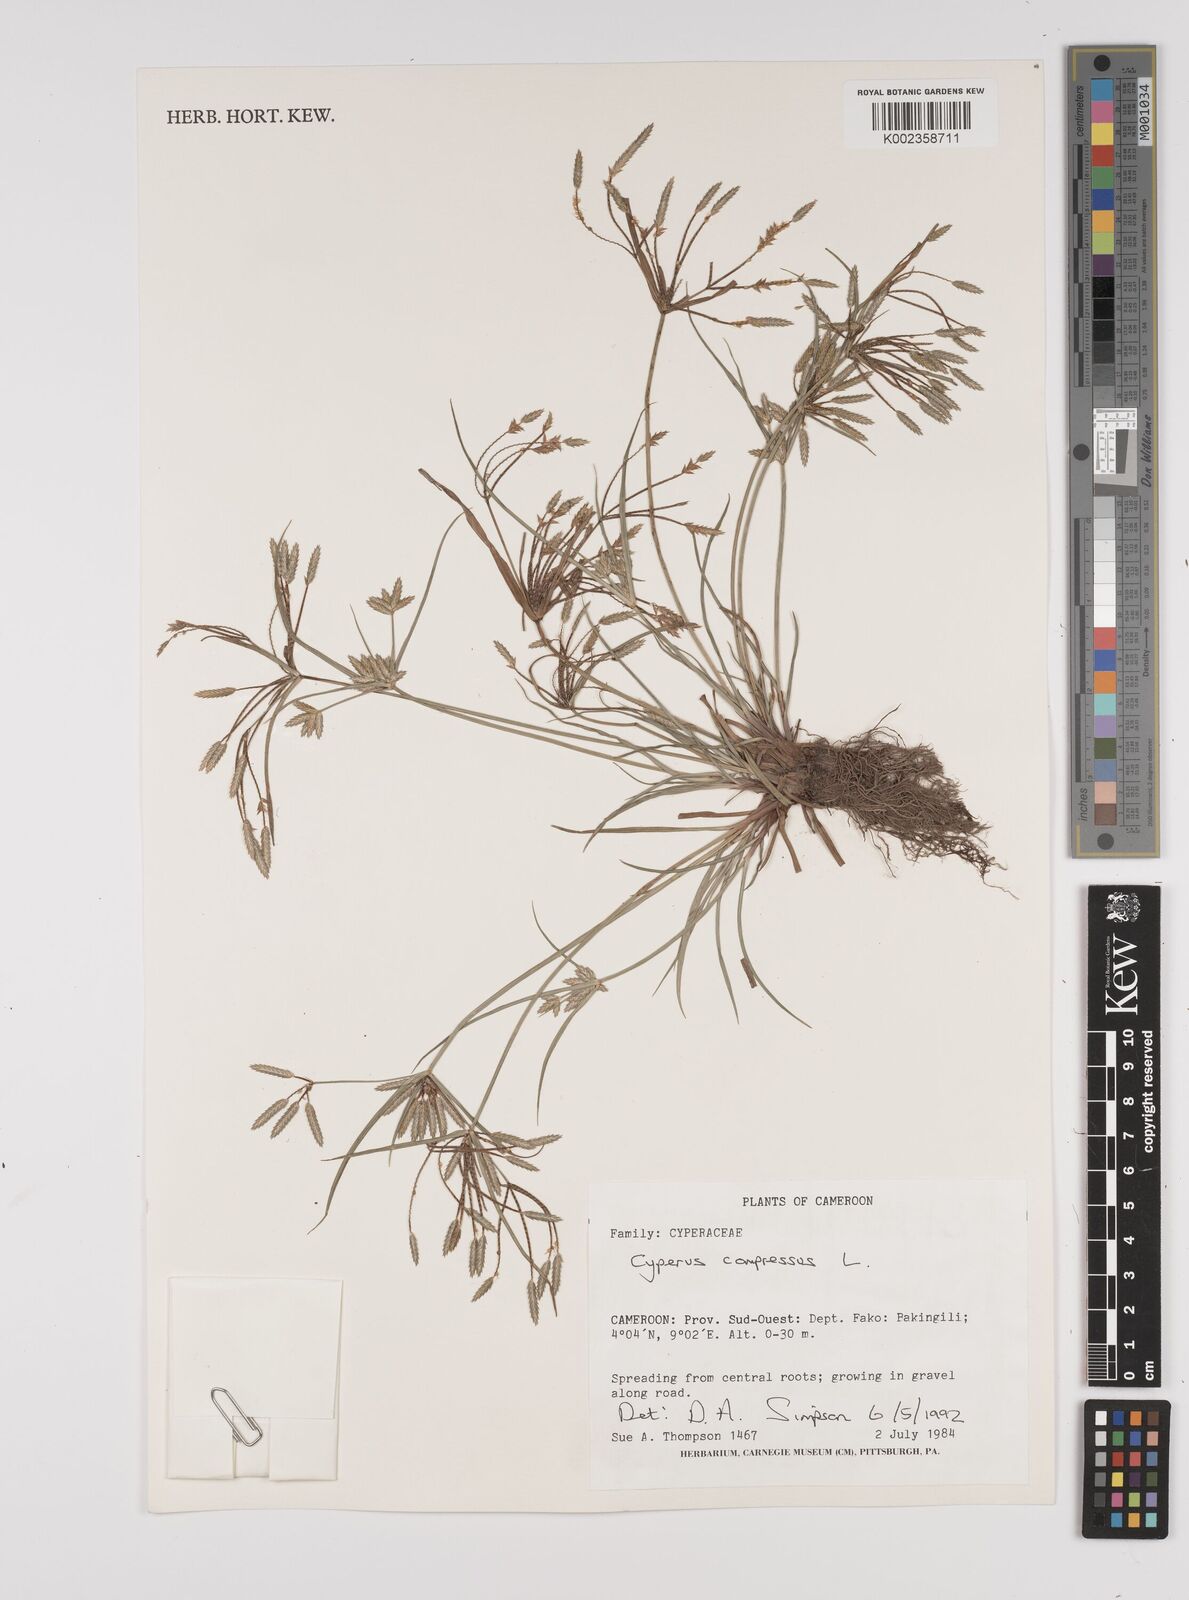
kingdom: Plantae
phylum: Tracheophyta
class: Liliopsida
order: Poales
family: Cyperaceae
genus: Cyperus
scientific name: Cyperus compressus
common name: Poorland flatsedge
